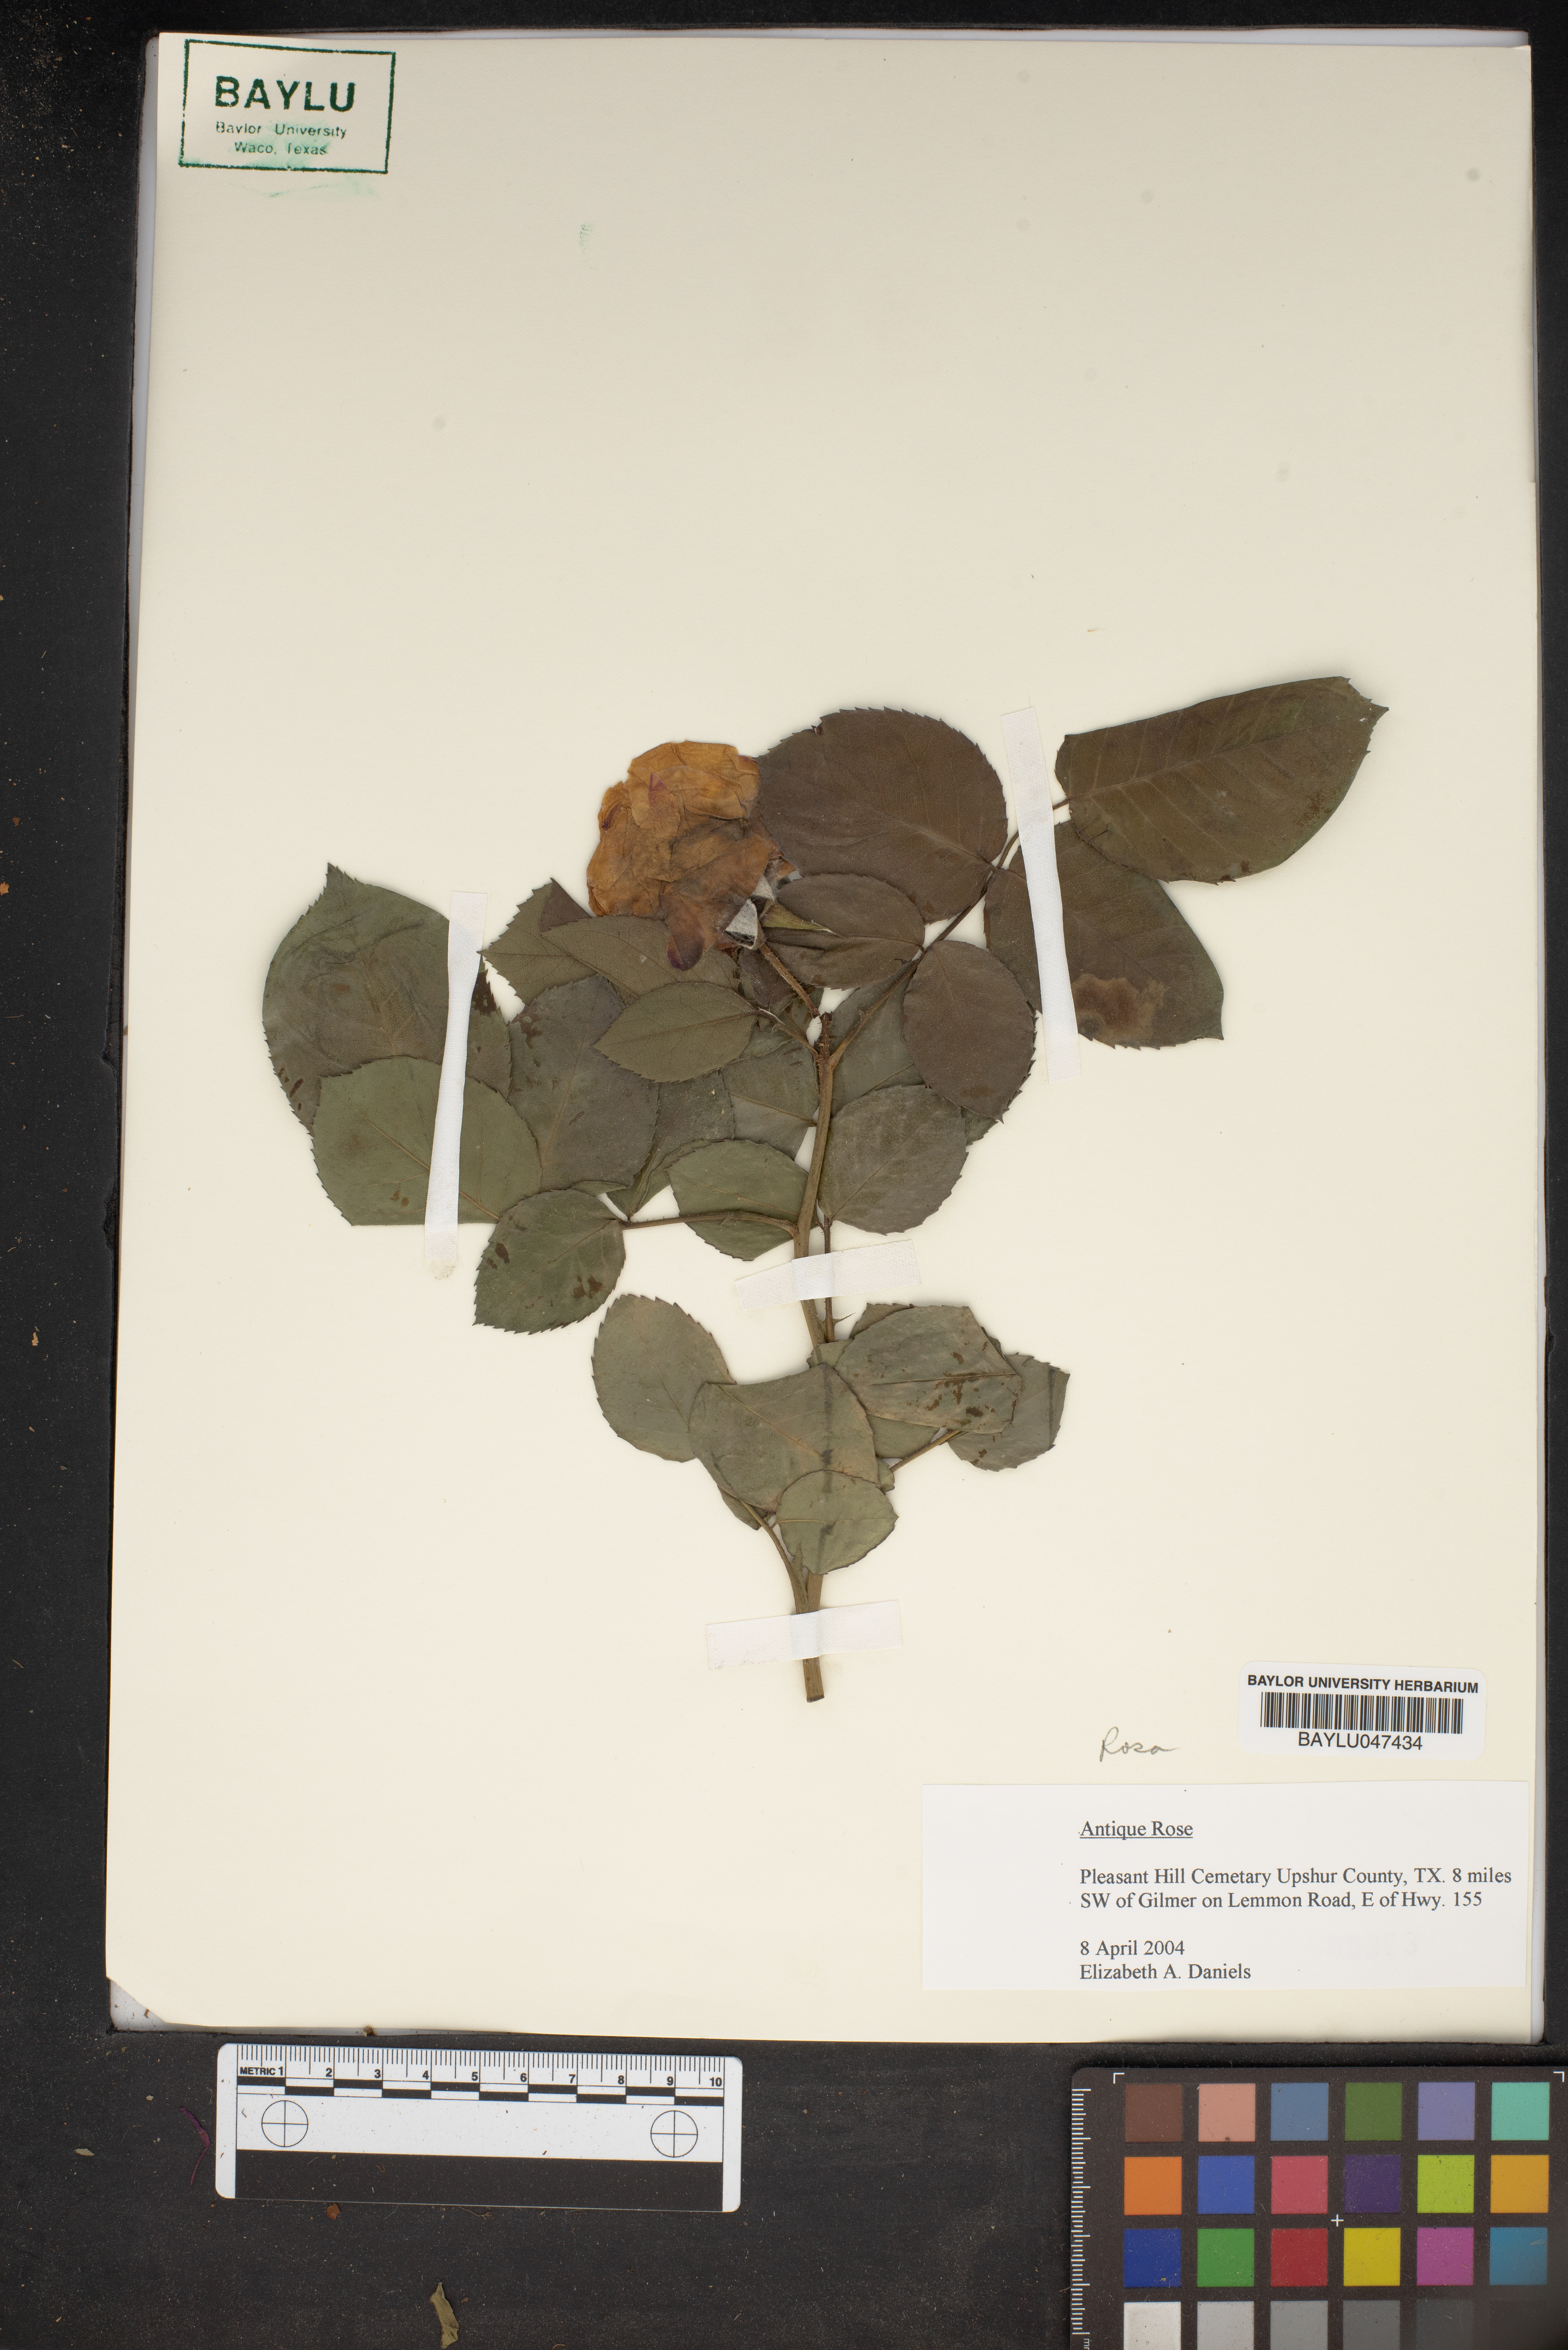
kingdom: Plantae
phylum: Tracheophyta
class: Magnoliopsida
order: Rosales
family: Rosaceae
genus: Rosa
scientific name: Rosa
